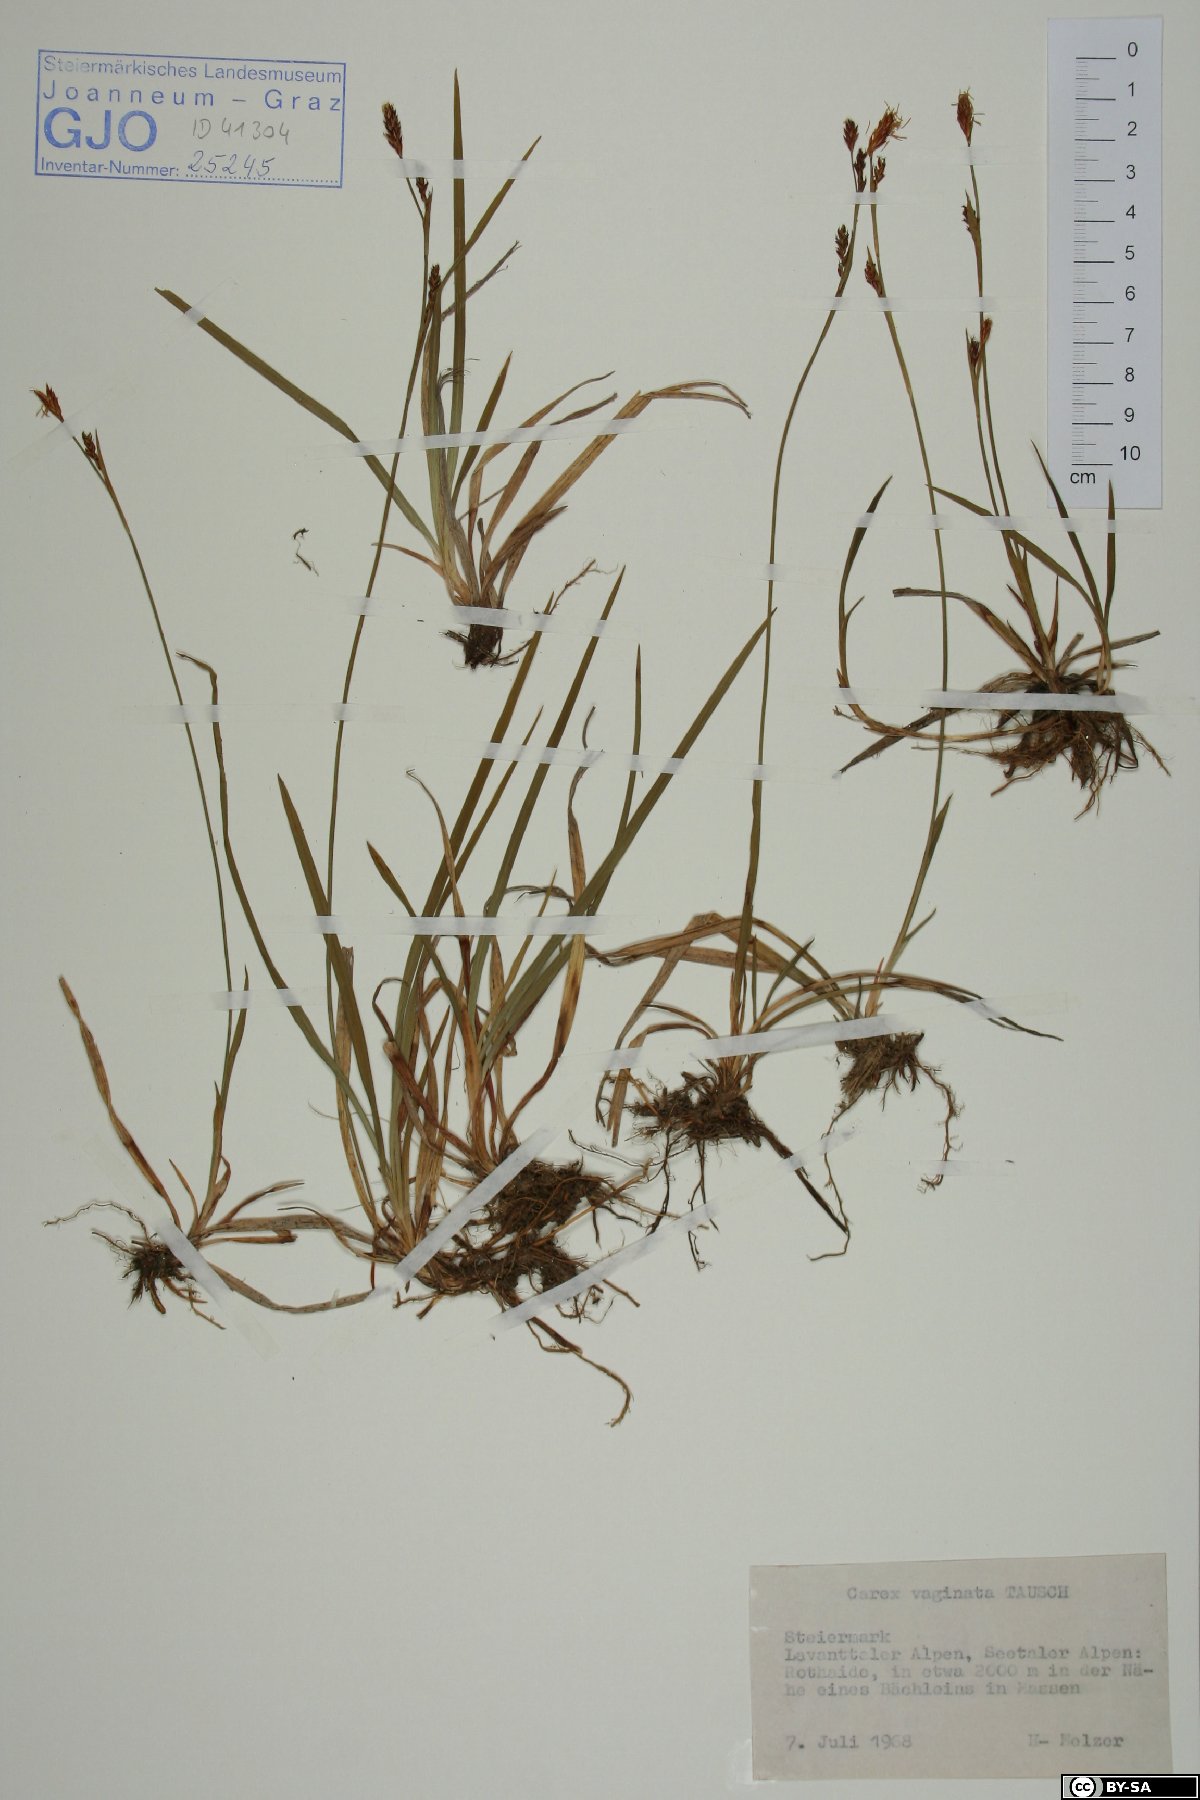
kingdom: Plantae
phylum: Tracheophyta
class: Liliopsida
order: Poales
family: Cyperaceae
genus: Carex
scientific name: Carex vaginata
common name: Sheathed sedge
